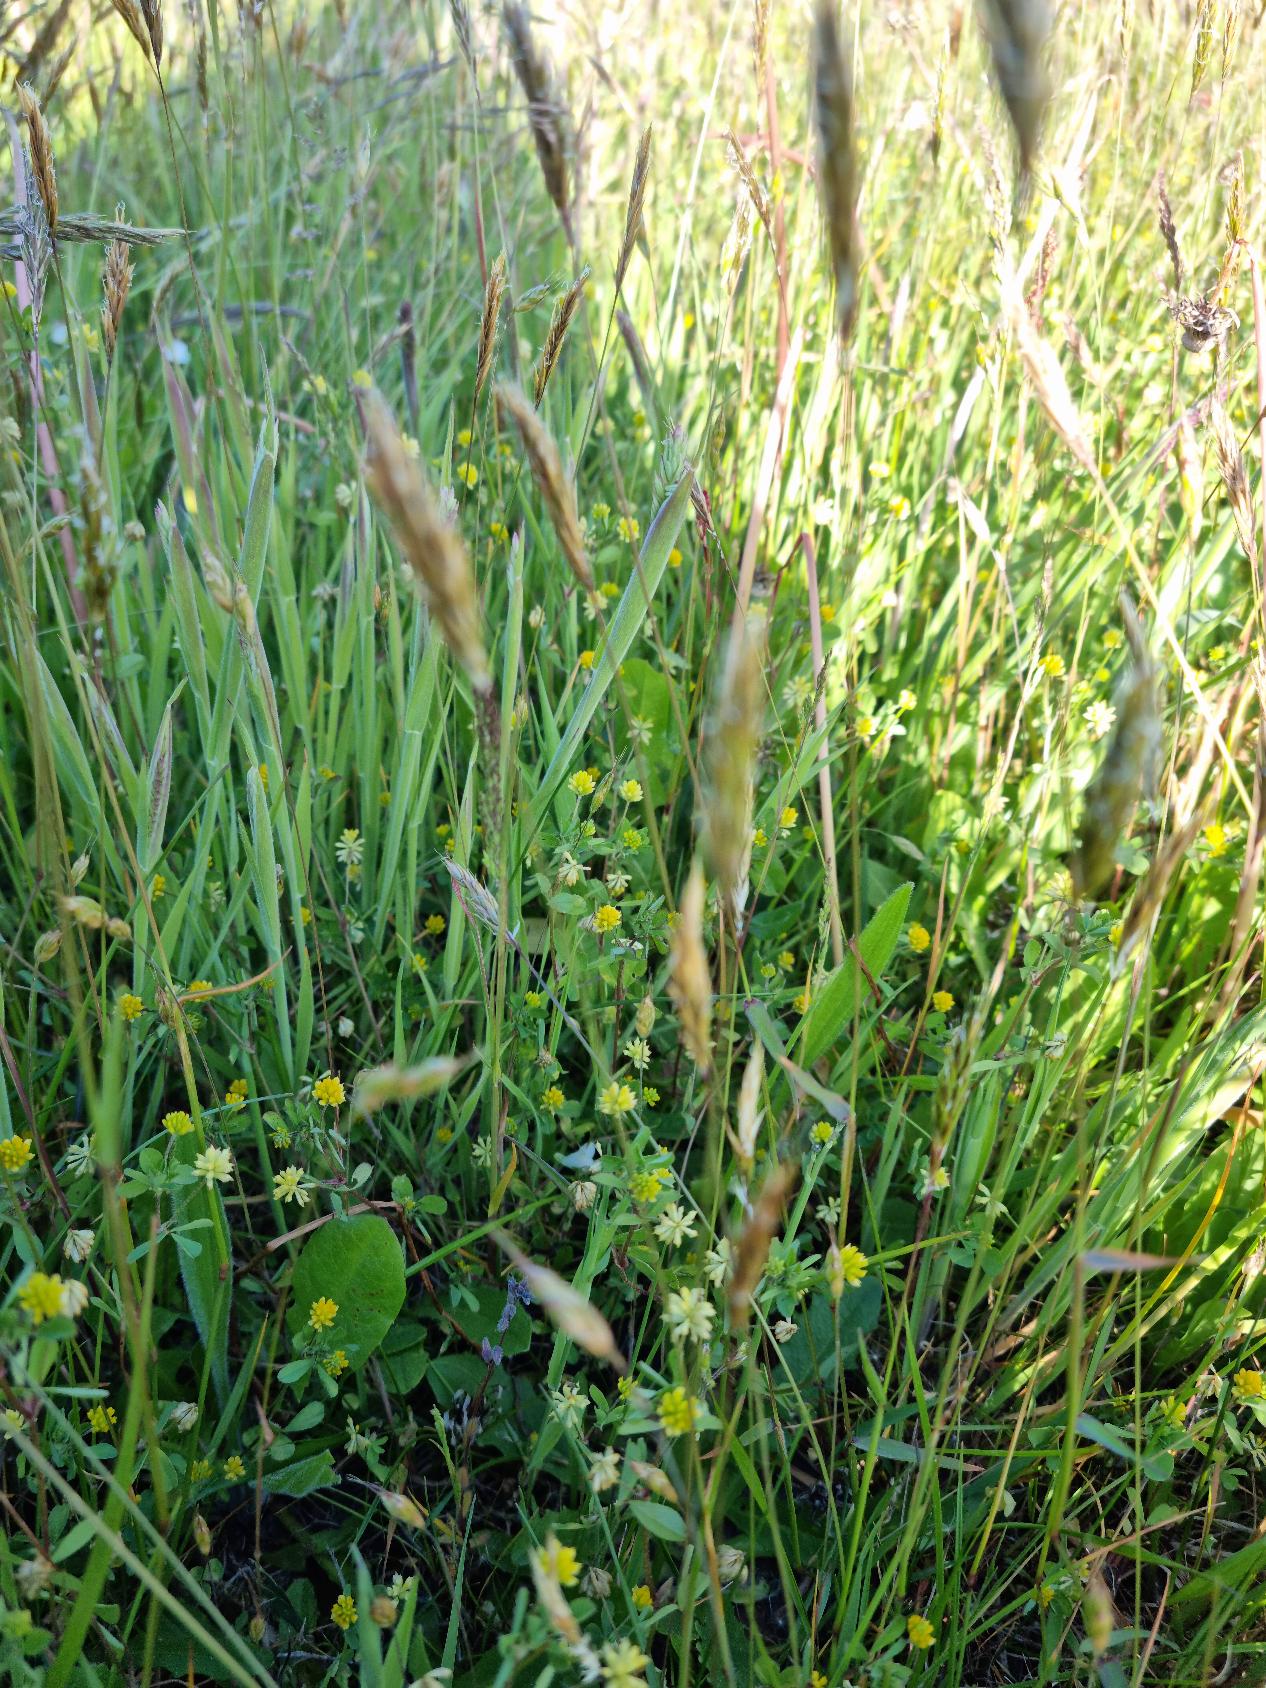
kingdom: Plantae
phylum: Tracheophyta
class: Liliopsida
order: Poales
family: Poaceae
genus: Anthoxanthum
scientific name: Anthoxanthum odoratum
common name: Vellugtende gulaks
